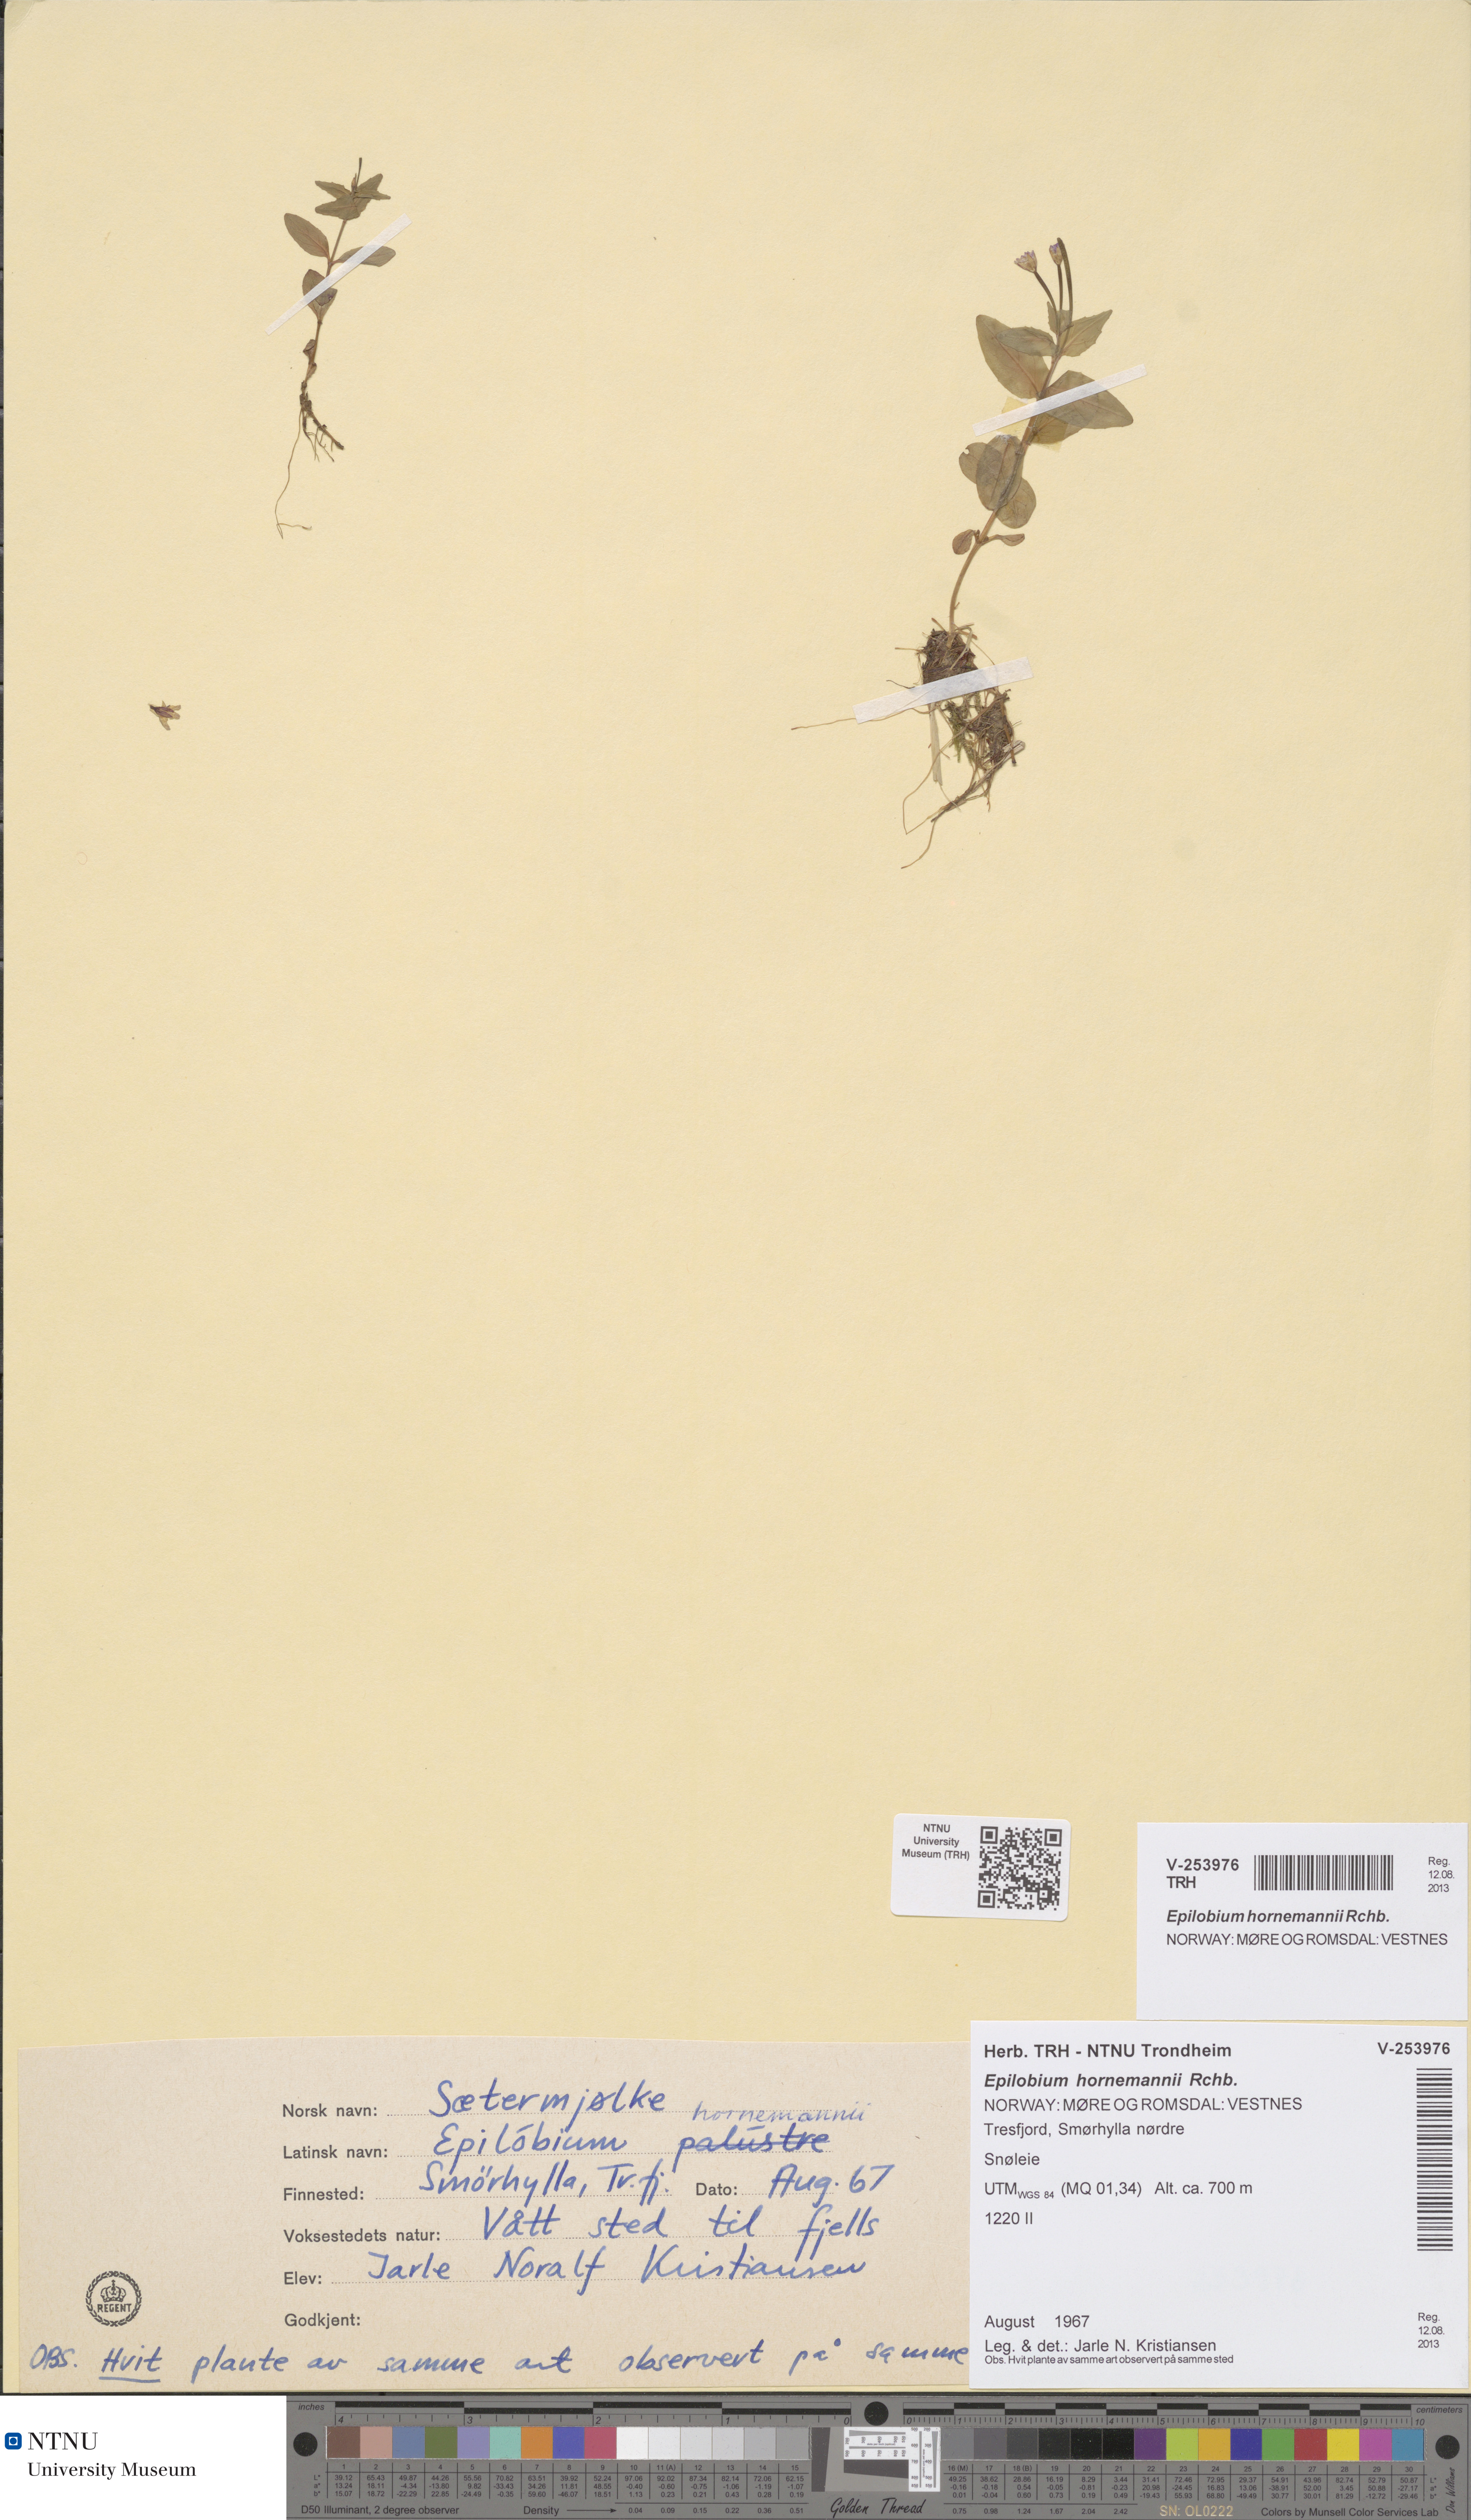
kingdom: Plantae
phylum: Tracheophyta
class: Magnoliopsida
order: Myrtales
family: Onagraceae
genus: Epilobium
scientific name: Epilobium hornemannii
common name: Hornemann's willowherb
